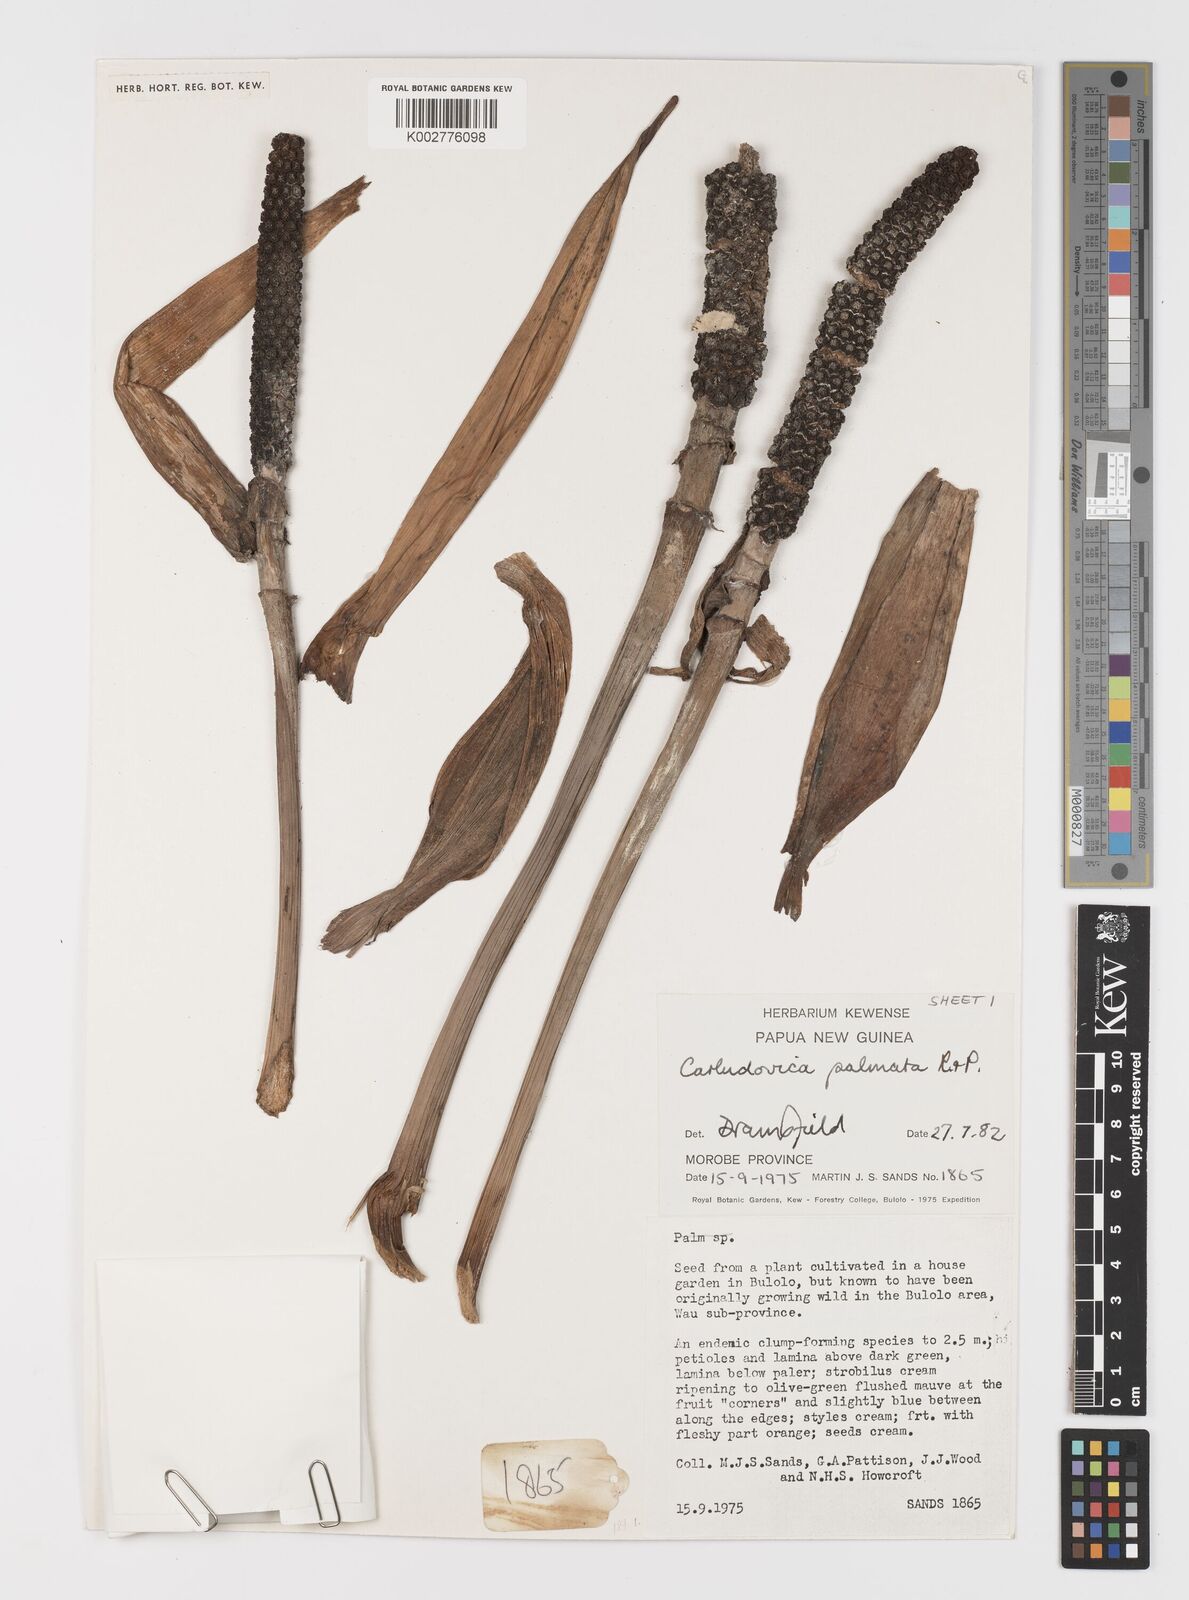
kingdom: Plantae
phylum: Tracheophyta
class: Liliopsida
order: Pandanales
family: Cyclanthaceae
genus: Carludovica
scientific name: Carludovica palmata
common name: Panama hat plant
